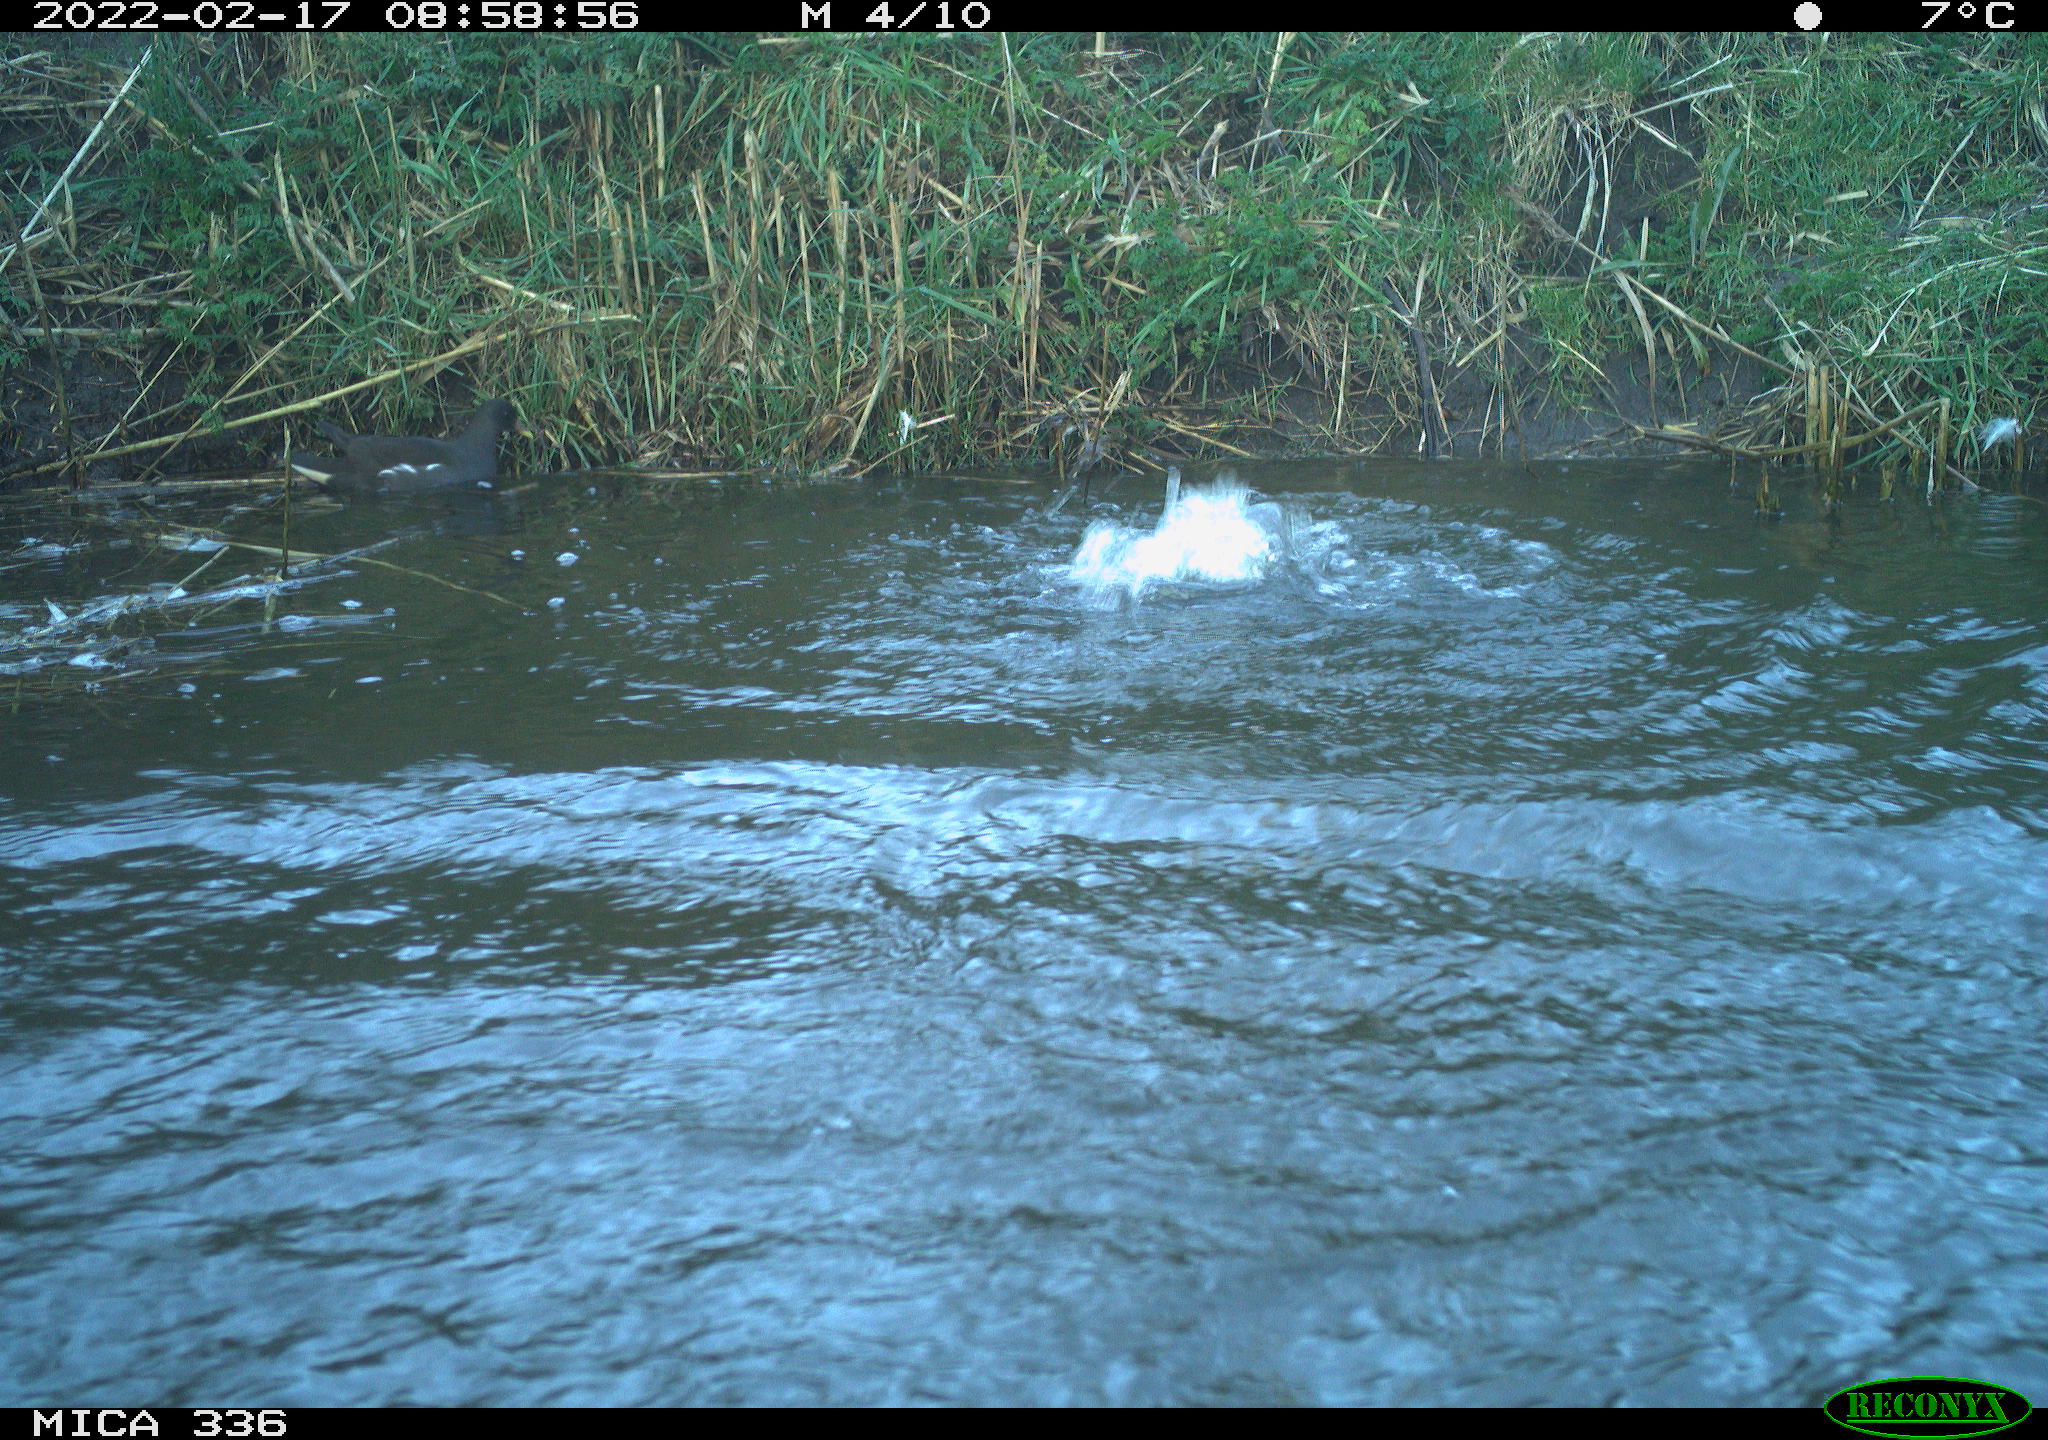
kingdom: Animalia
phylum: Chordata
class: Aves
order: Gruiformes
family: Rallidae
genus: Gallinula
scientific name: Gallinula chloropus
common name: Common moorhen
